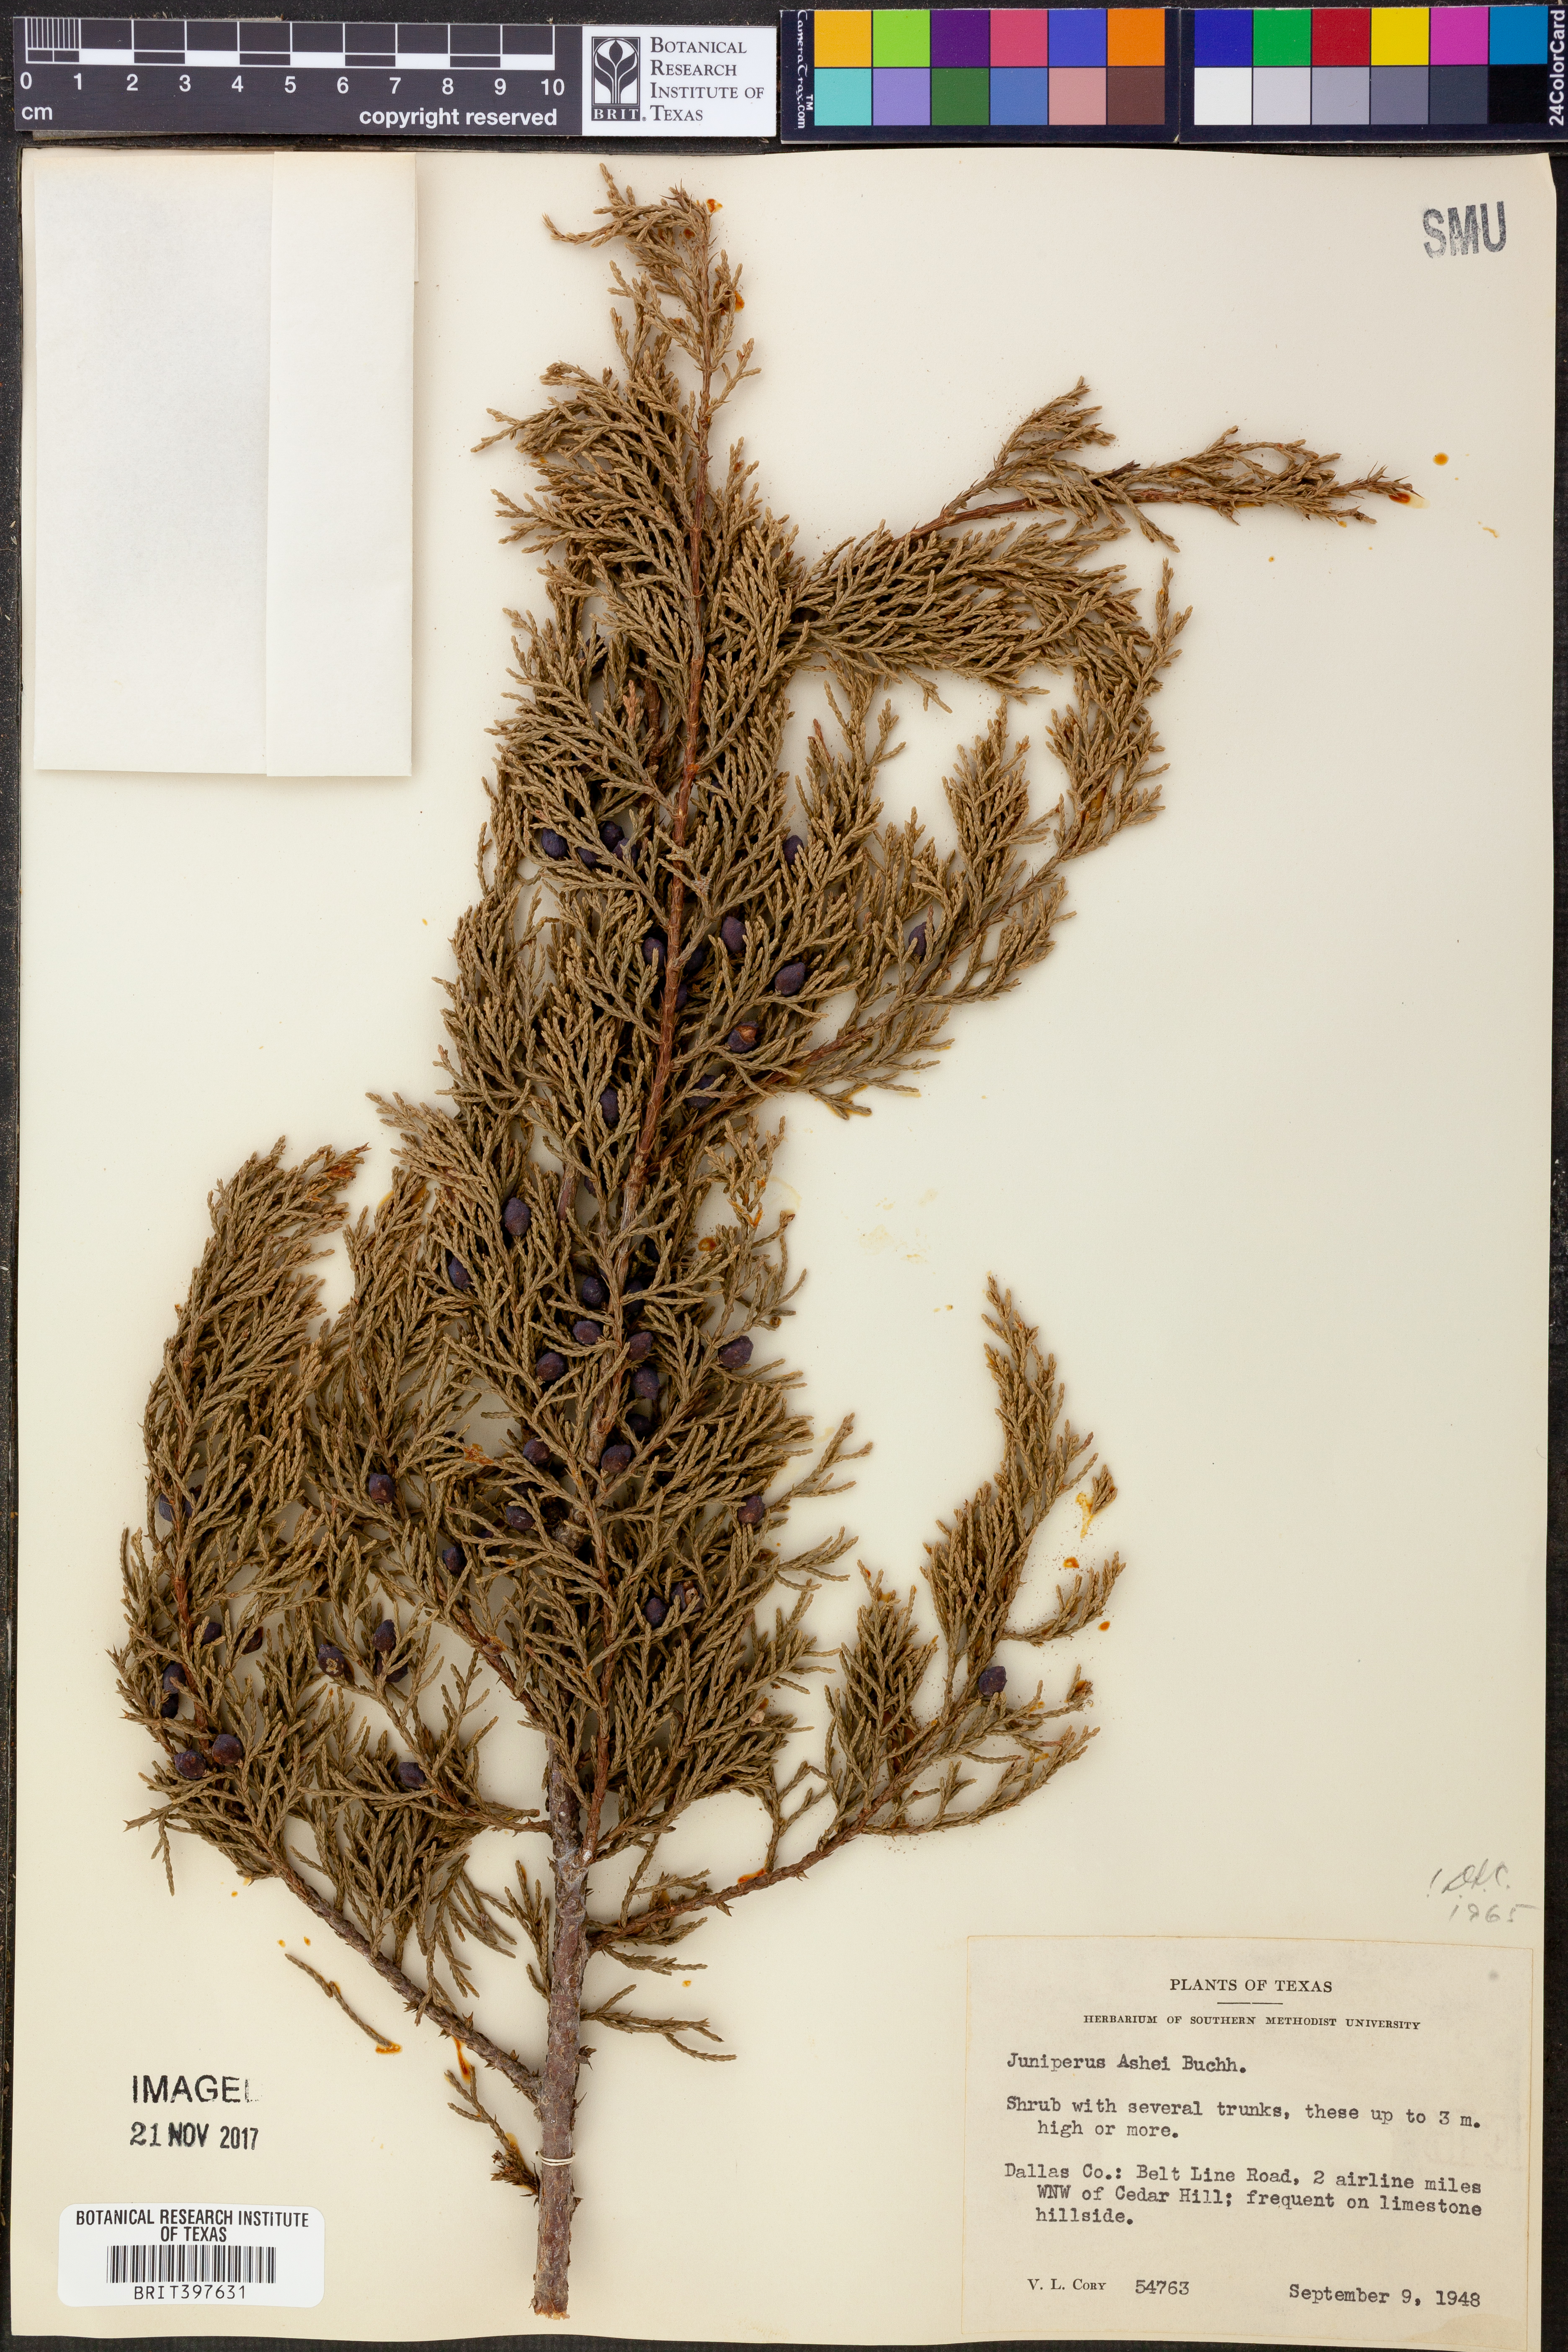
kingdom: Plantae
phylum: Tracheophyta
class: Pinopsida
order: Pinales
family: Cupressaceae
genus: Juniperus
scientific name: Juniperus ashei
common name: Mexican juniper
